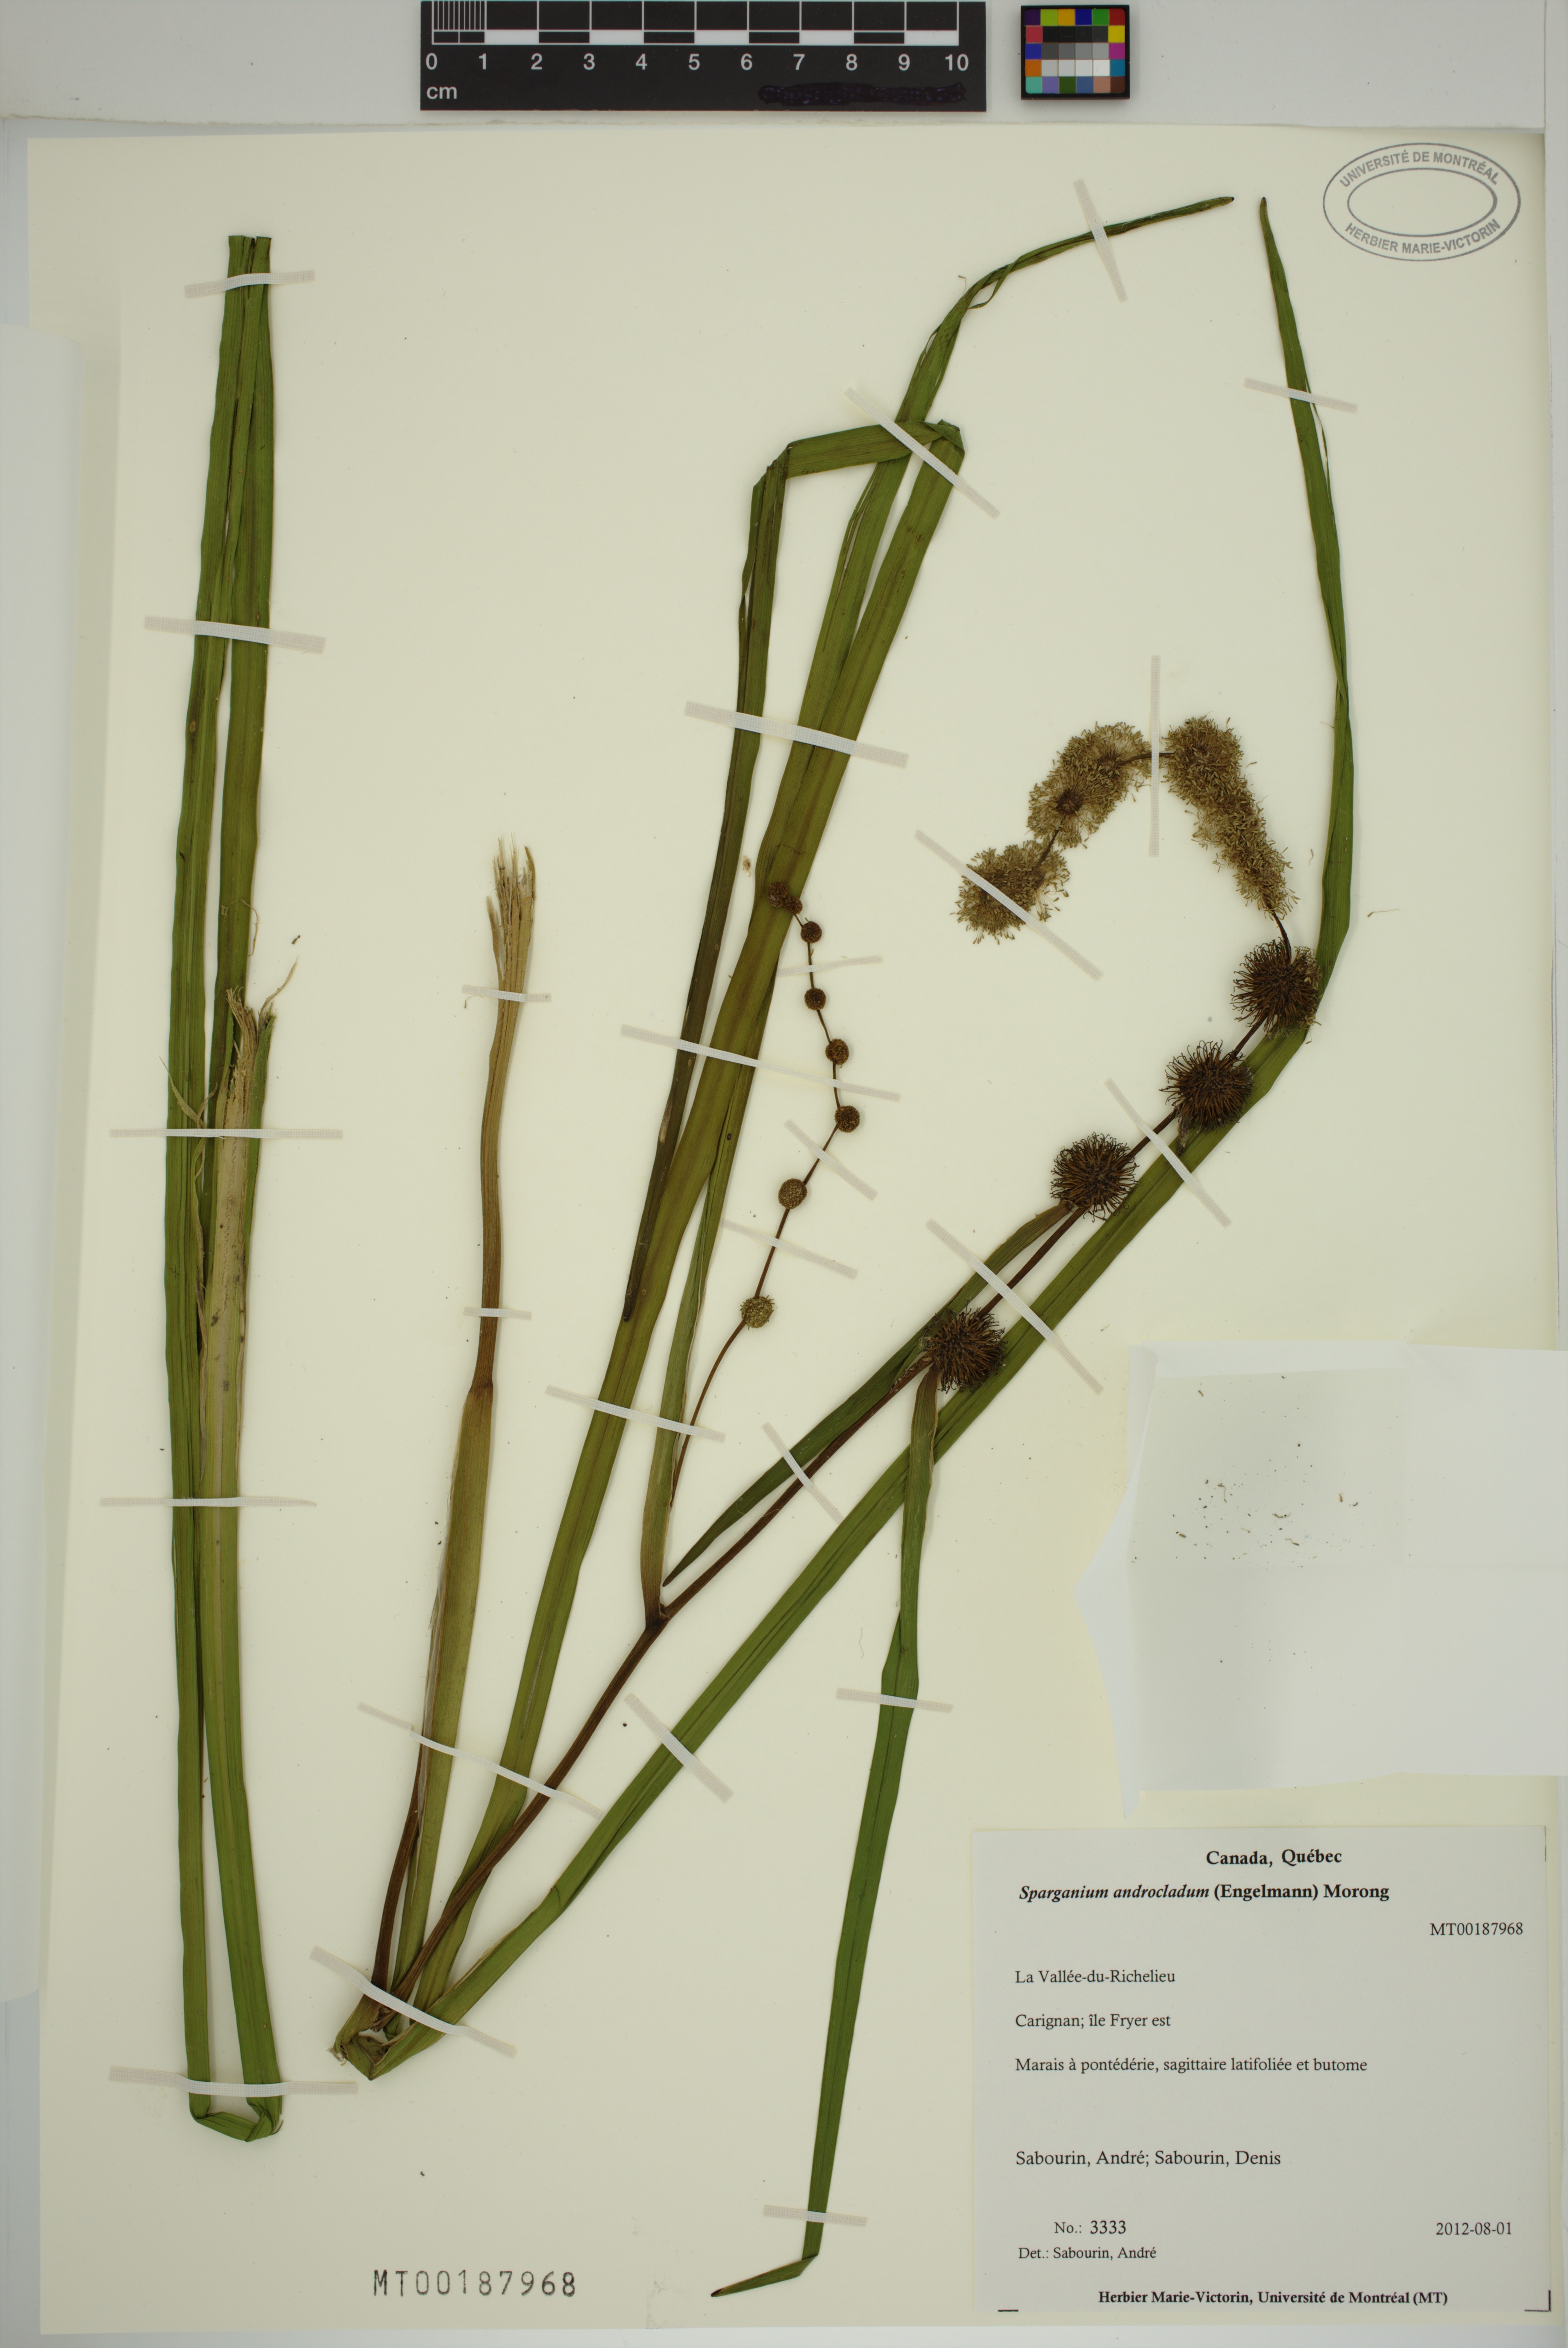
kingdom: Plantae
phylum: Tracheophyta
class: Liliopsida
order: Poales
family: Typhaceae
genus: Sparganium
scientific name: Sparganium androcladum
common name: Branched burreed
